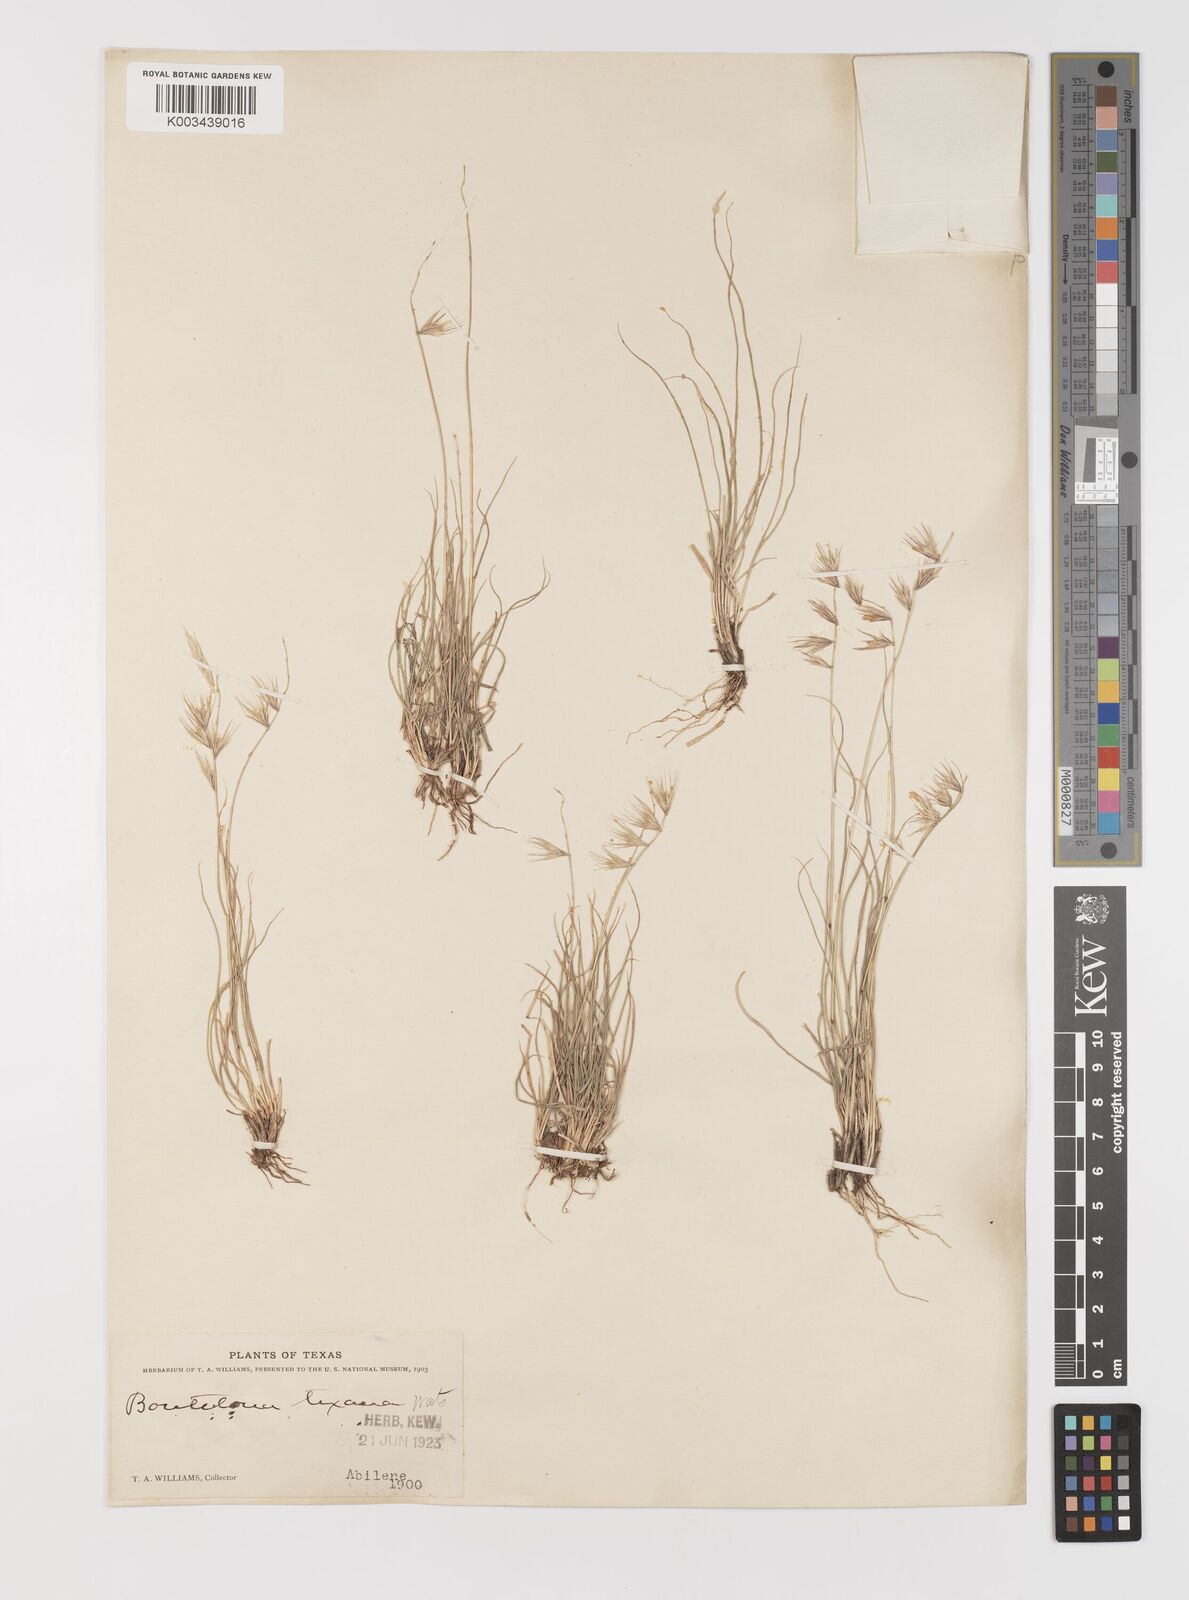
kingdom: Plantae
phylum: Tracheophyta
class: Liliopsida
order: Poales
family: Poaceae
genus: Bouteloua
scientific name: Bouteloua rigidiseta
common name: Texas grama
